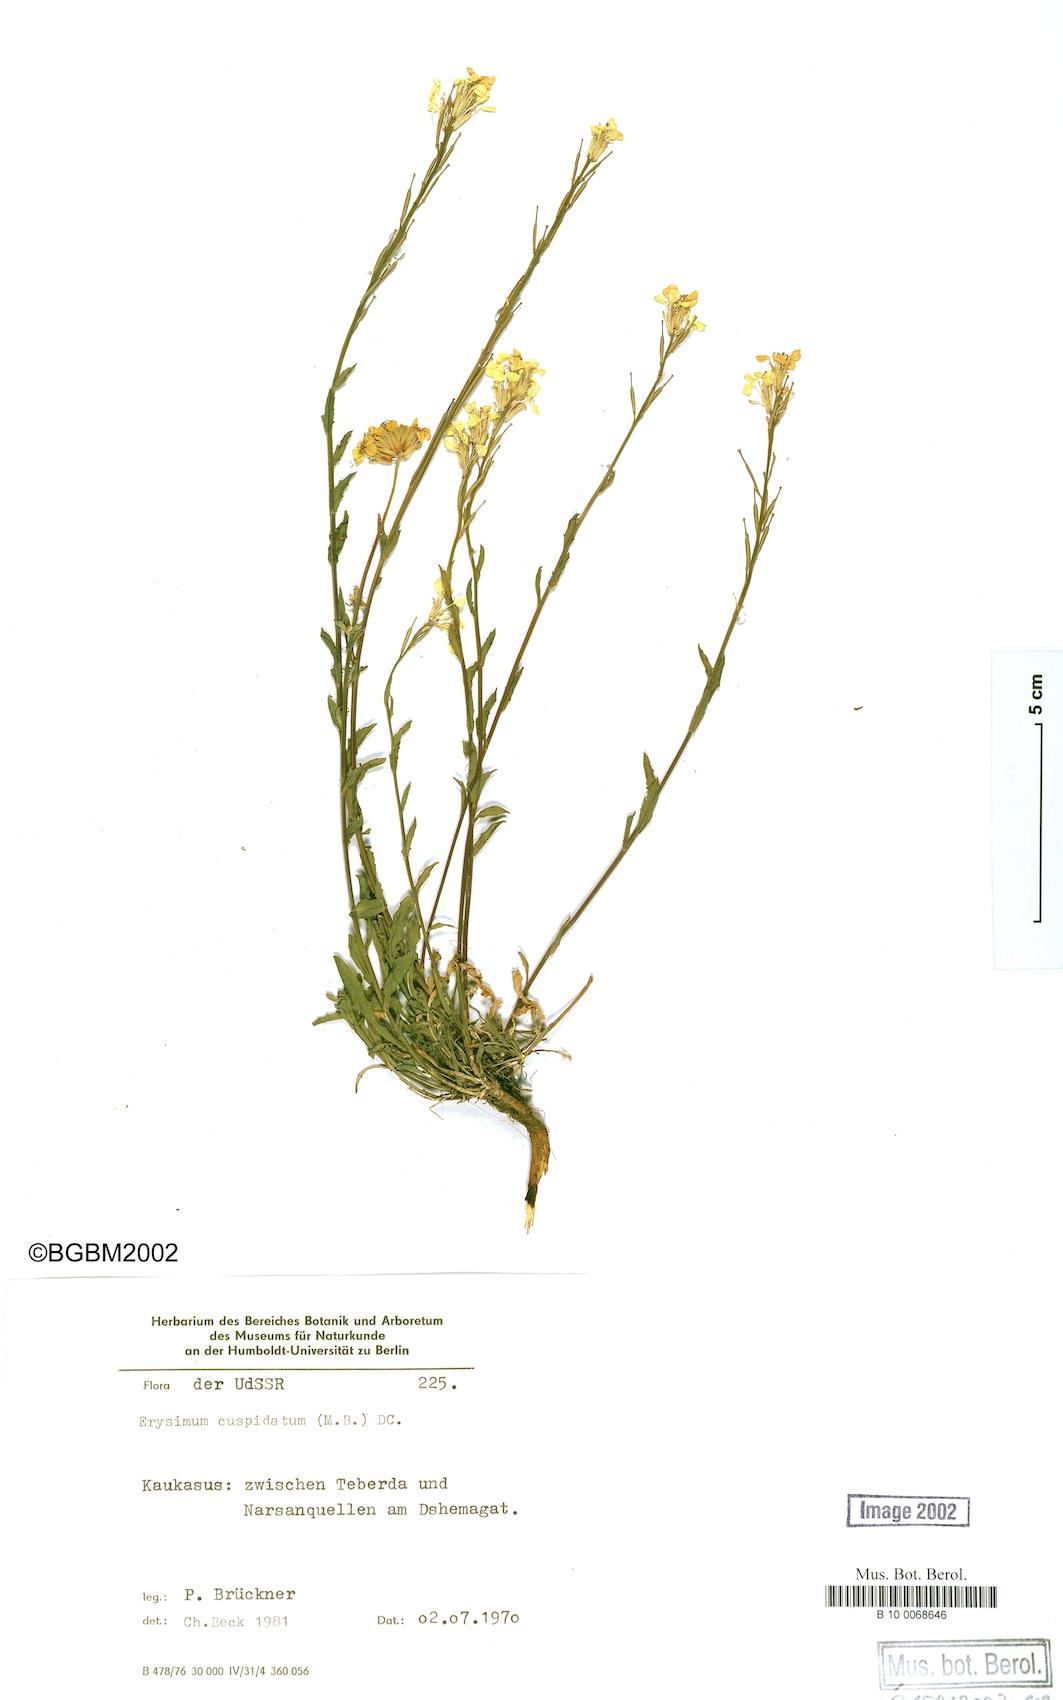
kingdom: Plantae
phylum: Tracheophyta
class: Magnoliopsida
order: Brassicales
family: Brassicaceae
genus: Erysimum
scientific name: Erysimum froehneri
